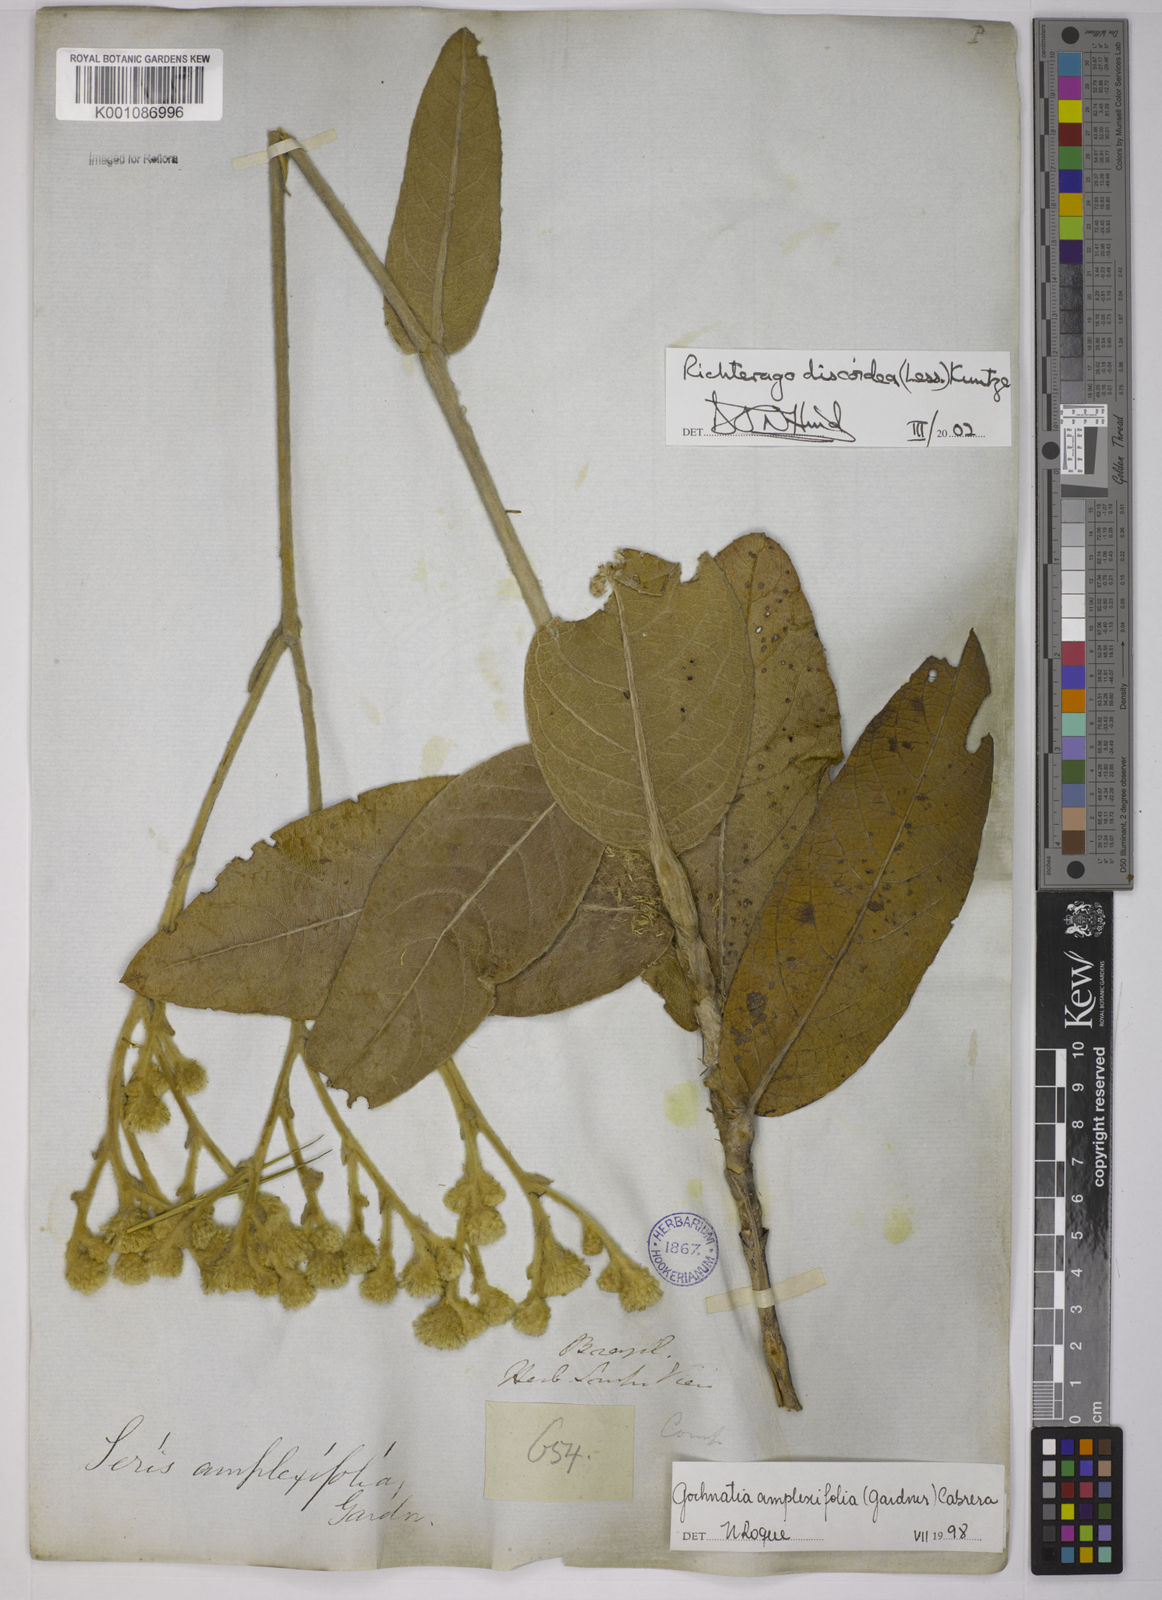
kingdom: Plantae
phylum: Tracheophyta
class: Magnoliopsida
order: Asterales
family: Asteraceae
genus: Richterago
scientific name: Richterago amplexifolia
